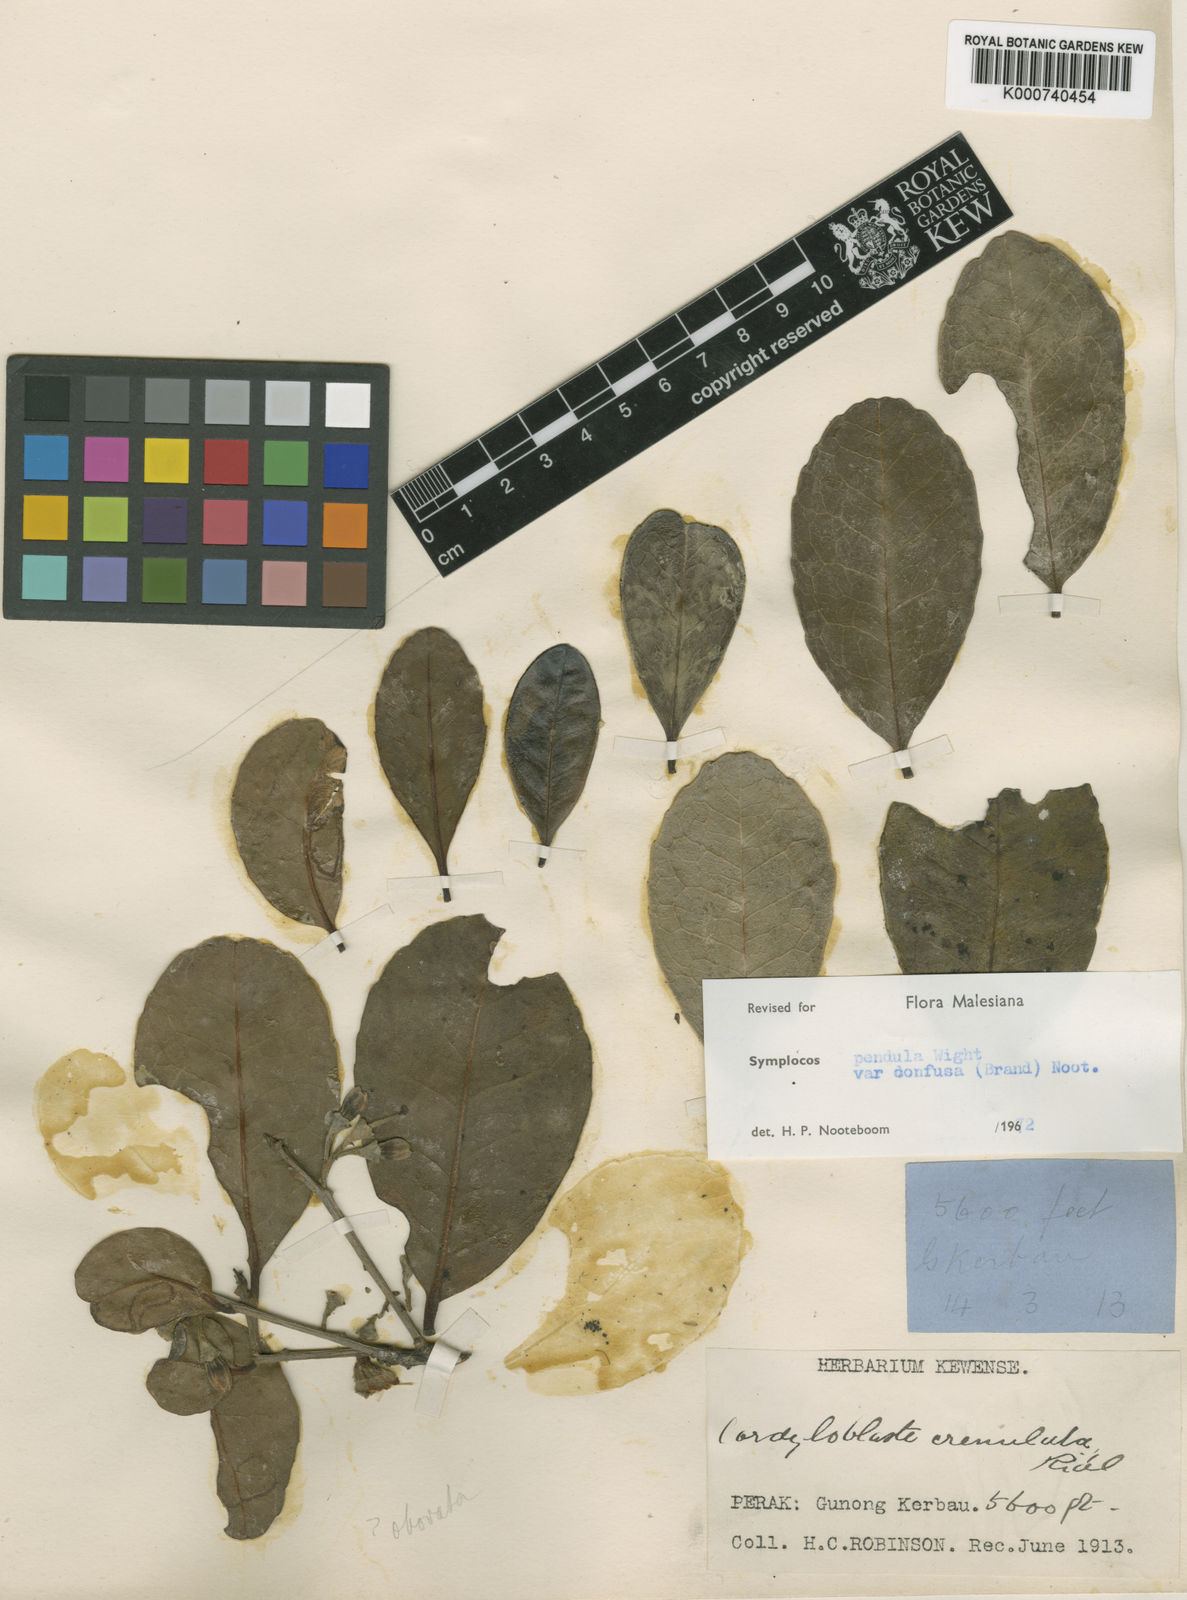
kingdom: Plantae
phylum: Tracheophyta
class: Magnoliopsida
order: Ericales
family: Symplocaceae
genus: Symplocos
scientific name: Symplocos pendula
